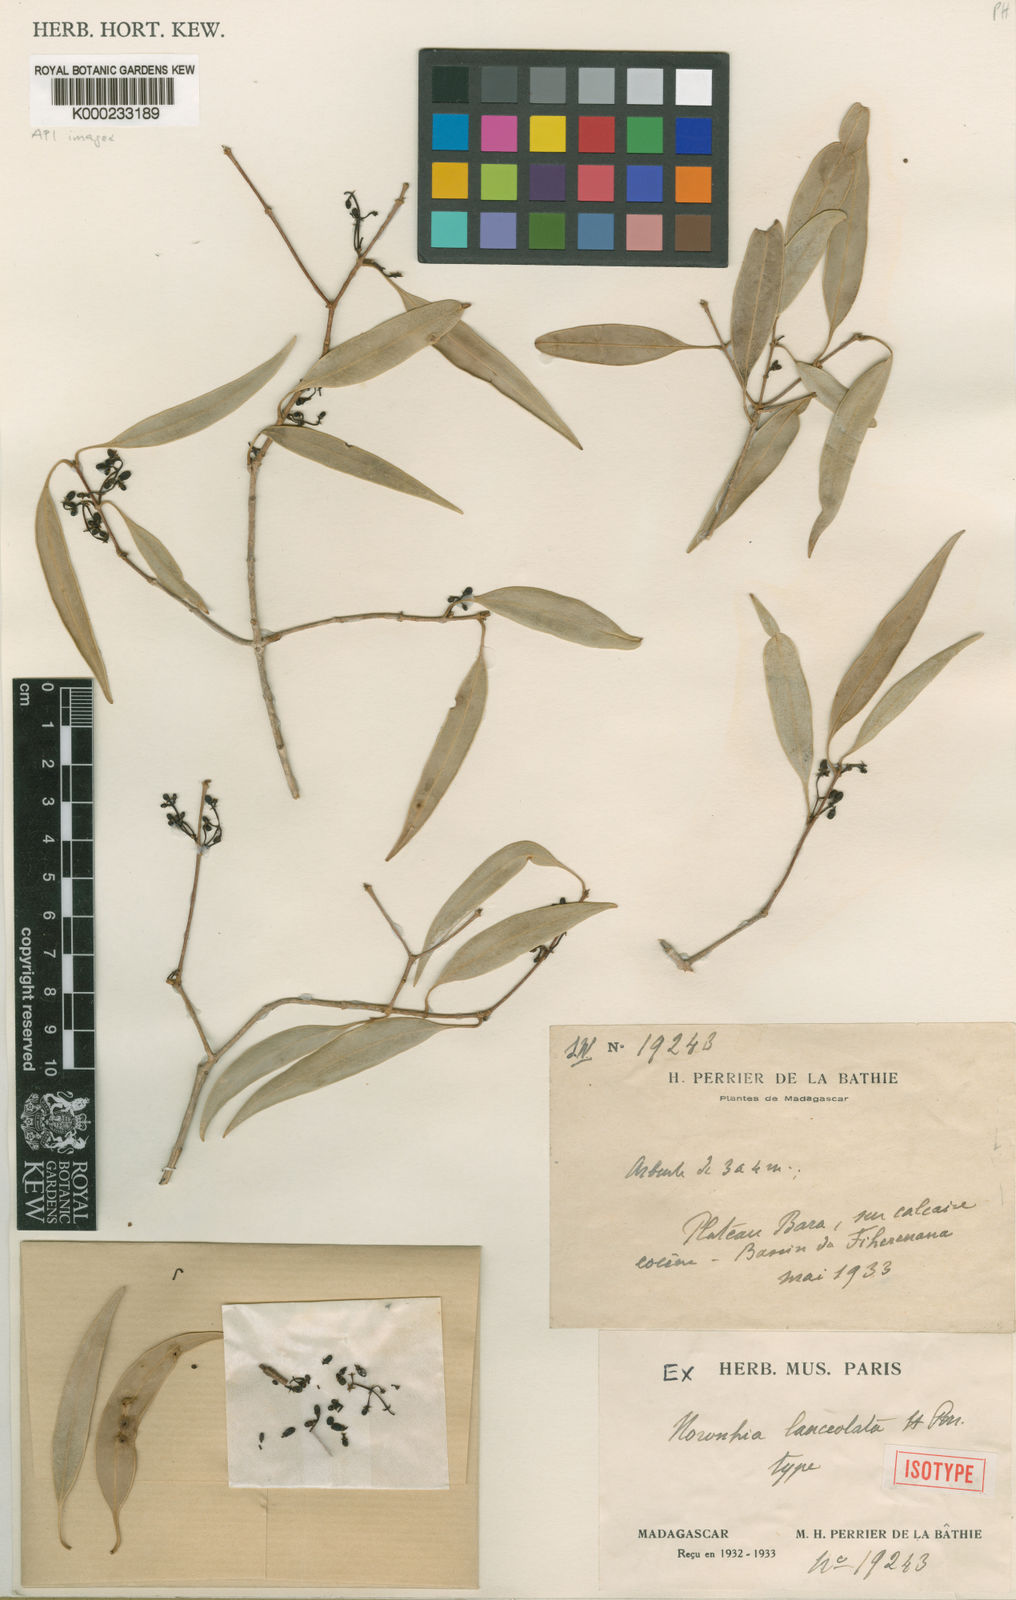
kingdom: Plantae
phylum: Tracheophyta
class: Magnoliopsida
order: Lamiales
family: Oleaceae
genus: Noronhia
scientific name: Noronhia lanceolata
